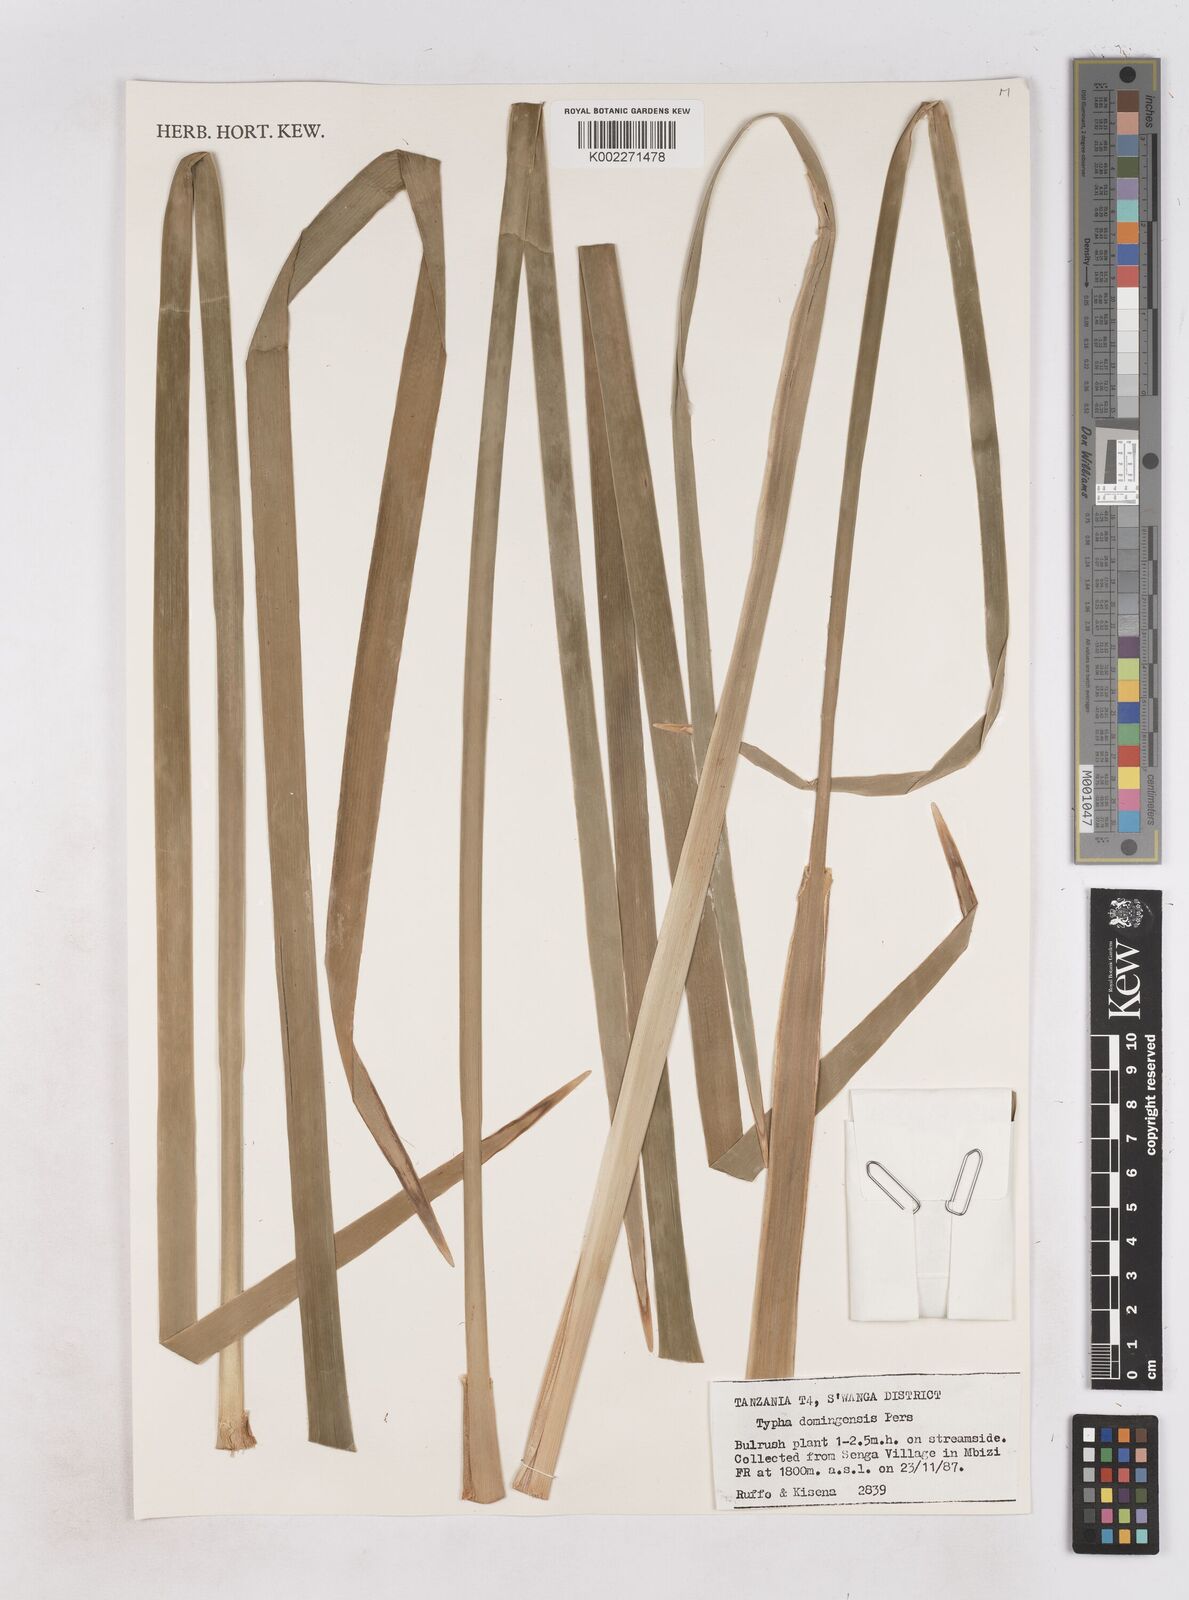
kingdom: Plantae
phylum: Tracheophyta
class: Liliopsida
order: Poales
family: Typhaceae
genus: Typha
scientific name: Typha domingensis
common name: Southern cattail
